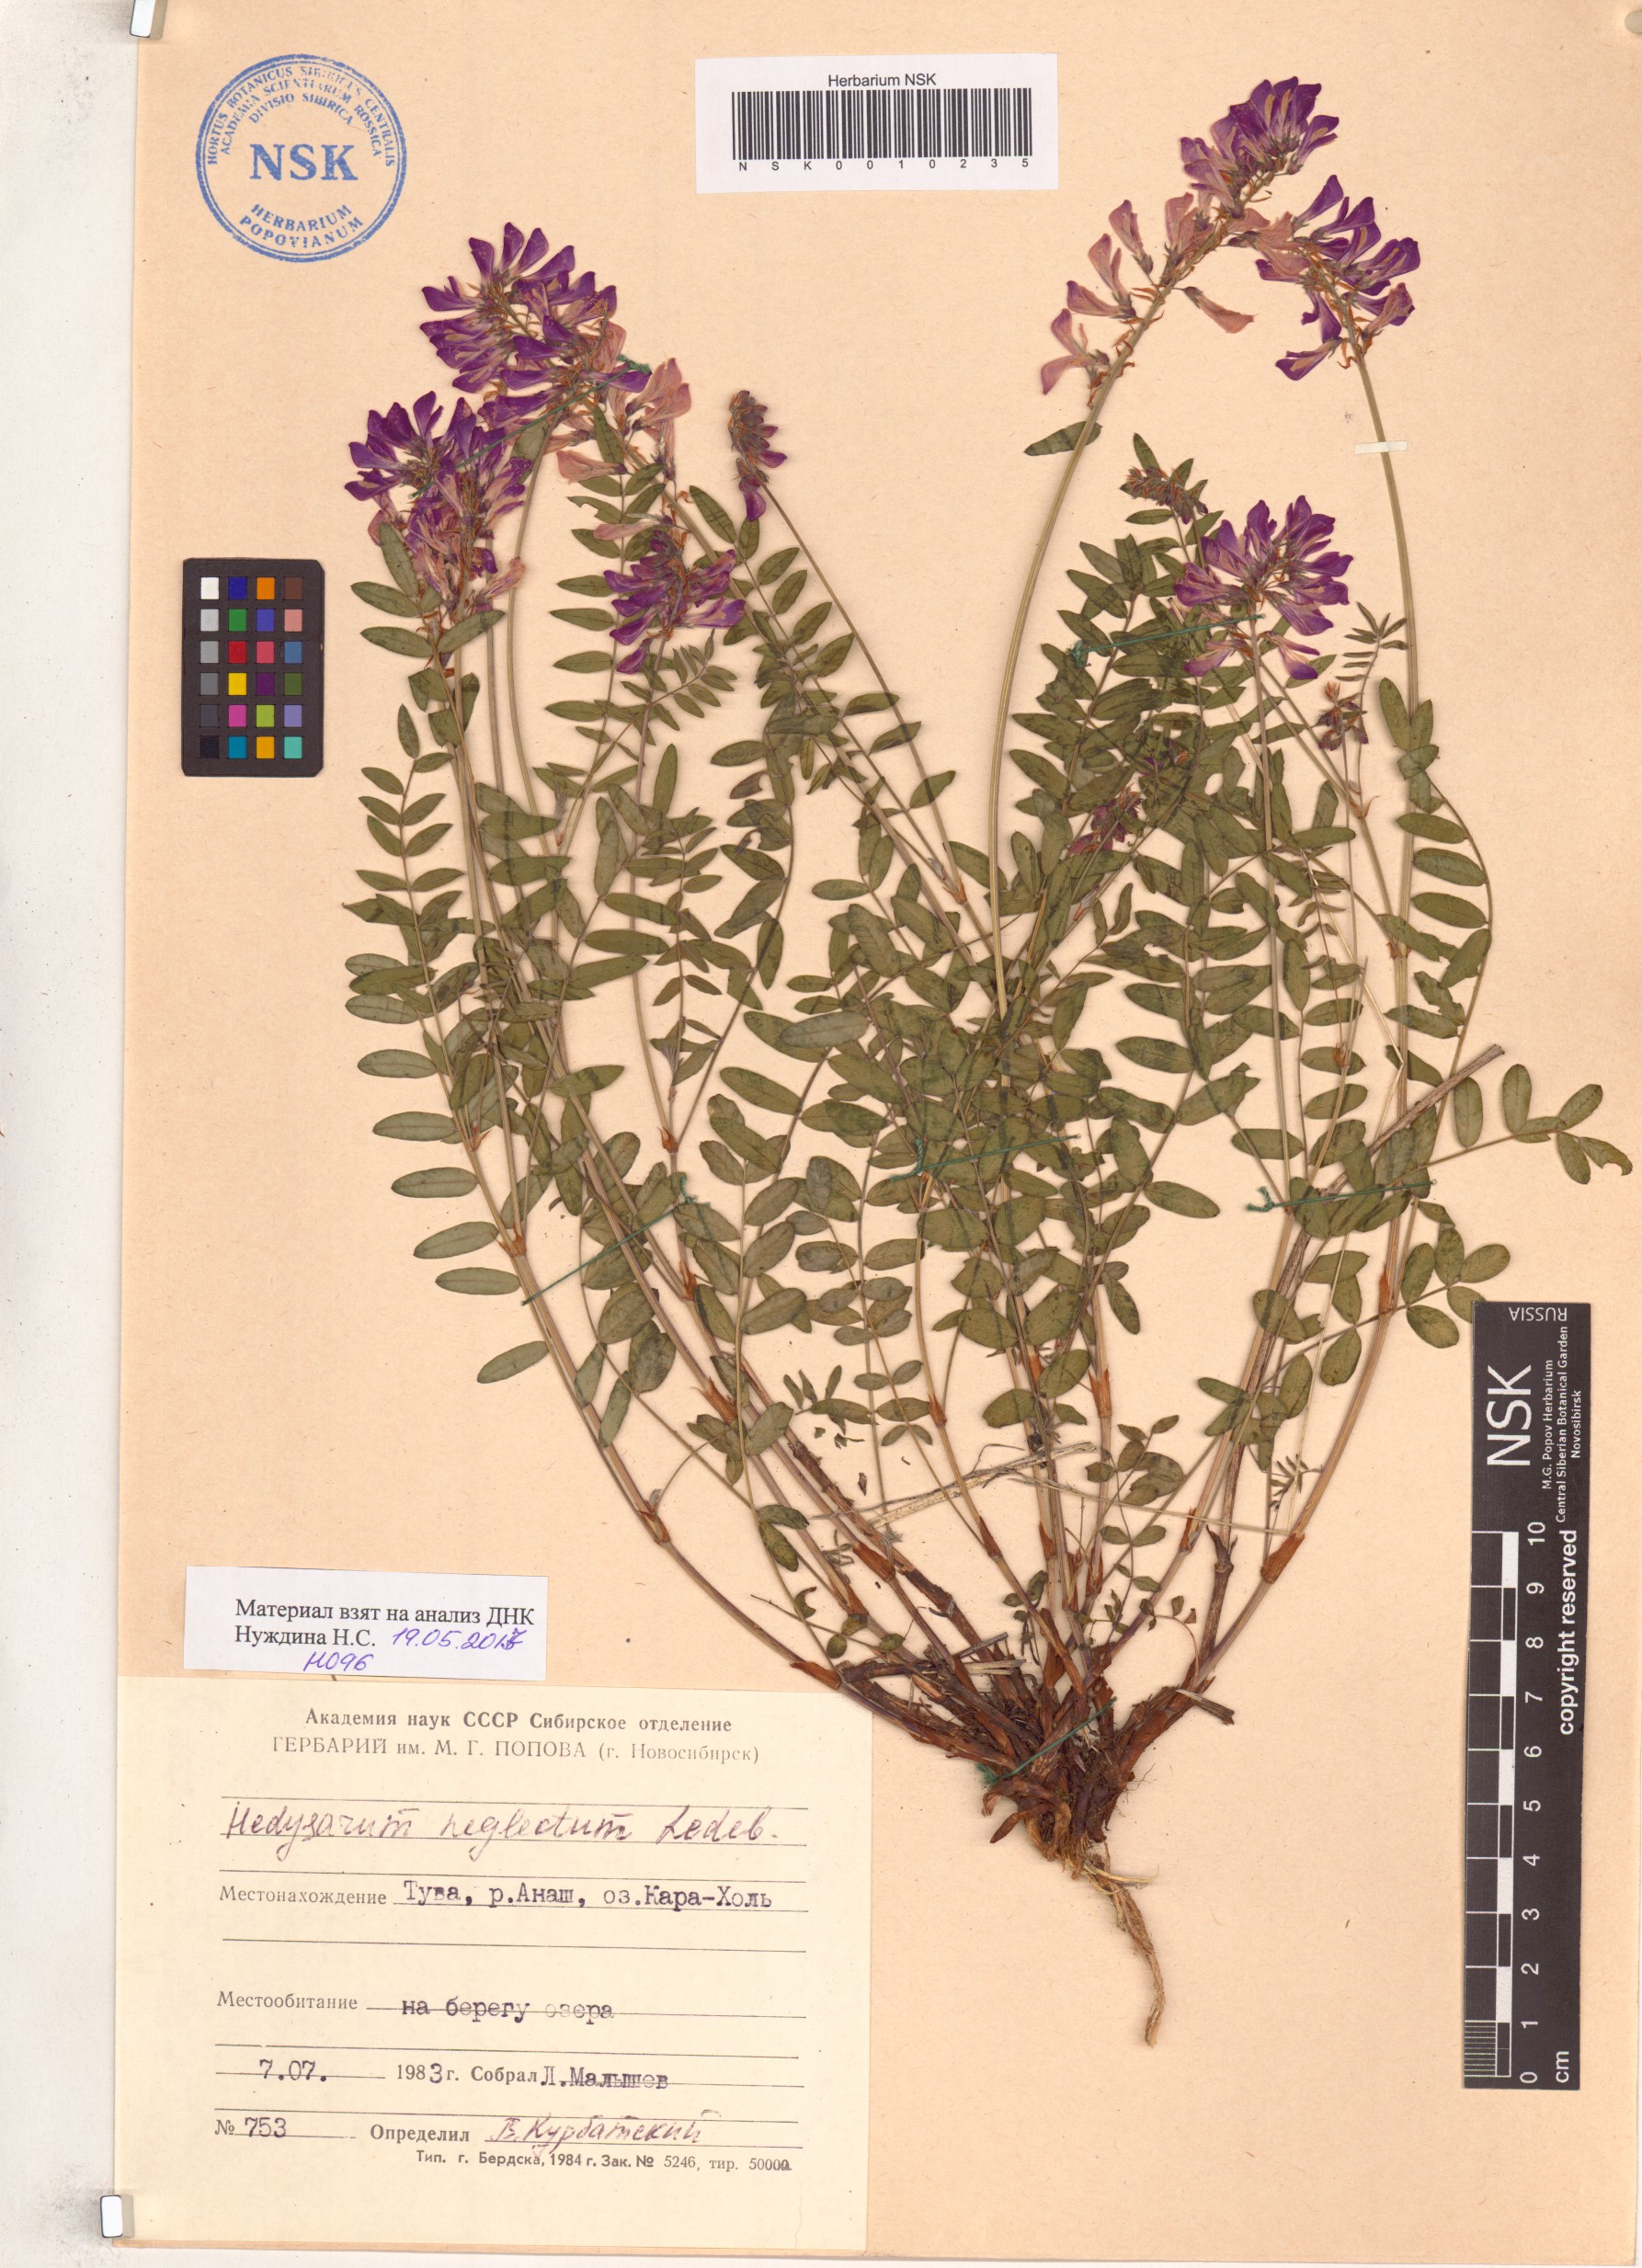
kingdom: Plantae
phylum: Tracheophyta
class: Magnoliopsida
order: Fabales
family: Fabaceae
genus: Hedysarum
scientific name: Hedysarum neglectum
